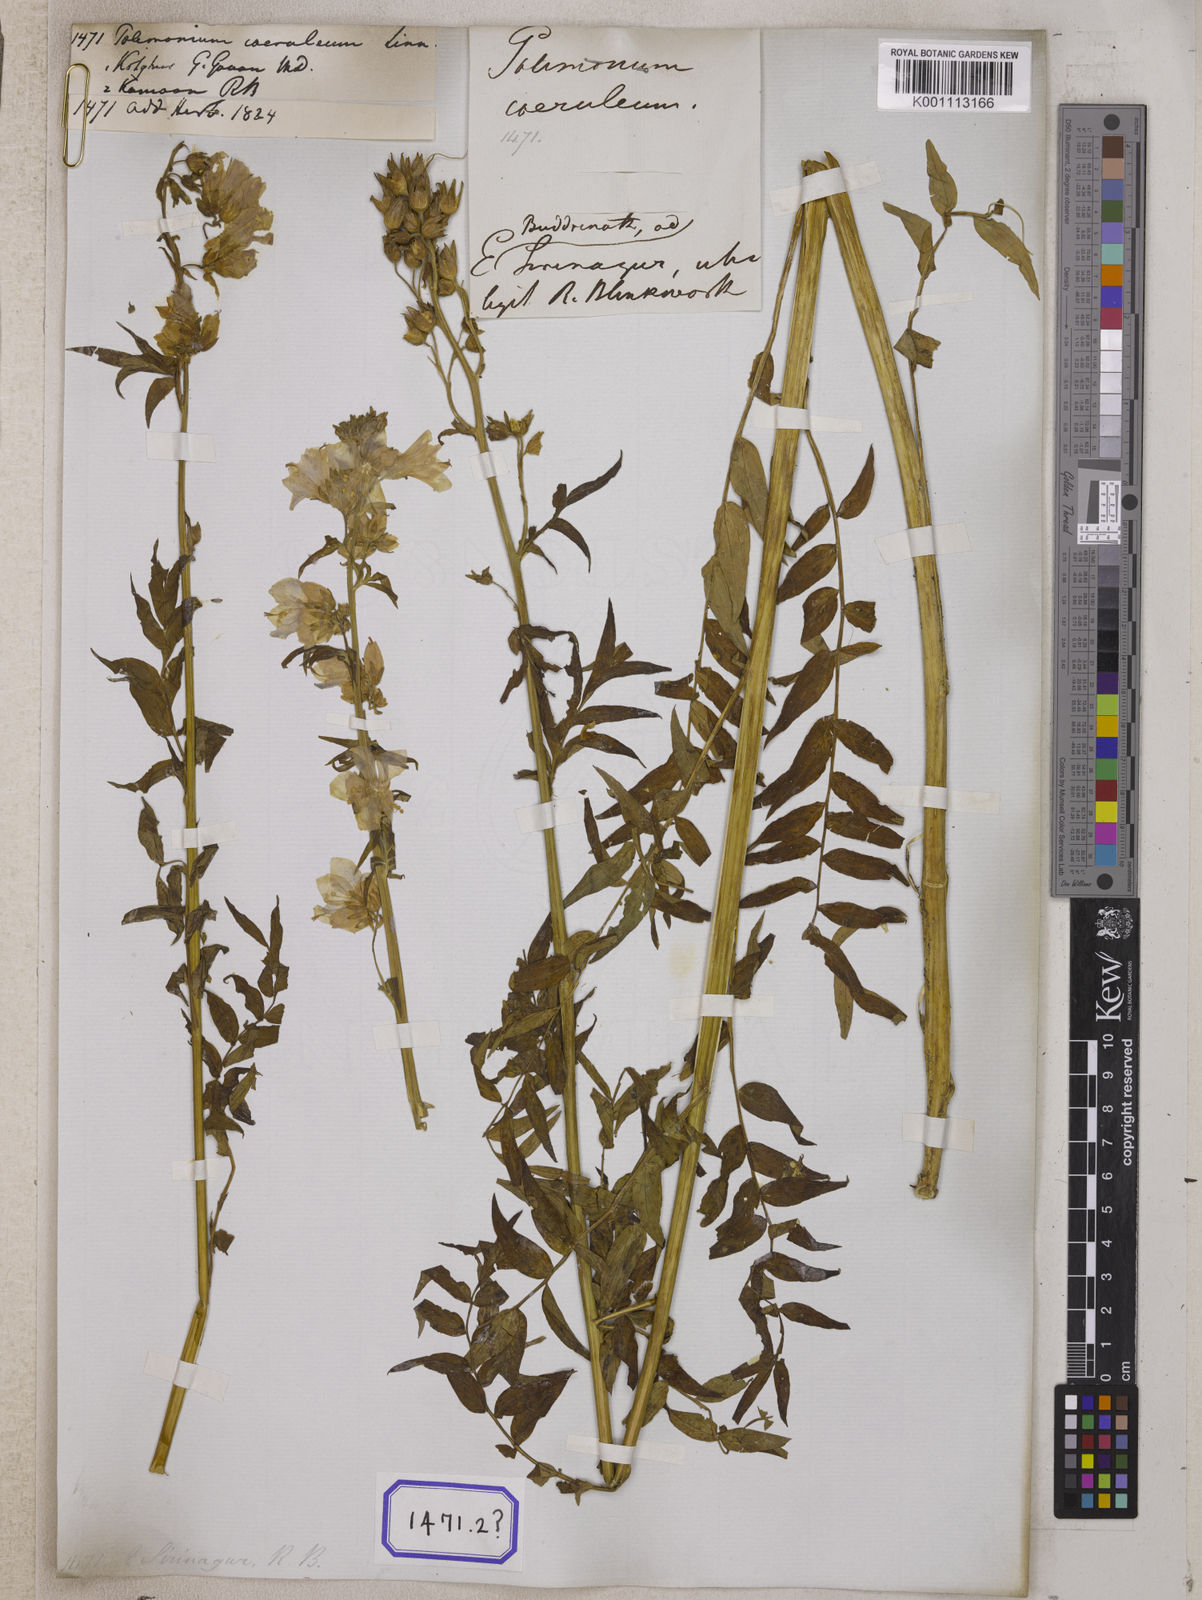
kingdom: Plantae
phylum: Tracheophyta
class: Magnoliopsida
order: Ericales
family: Polemoniaceae
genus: Polemonium
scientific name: Polemonium caeruleum
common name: Jacob's-ladder
